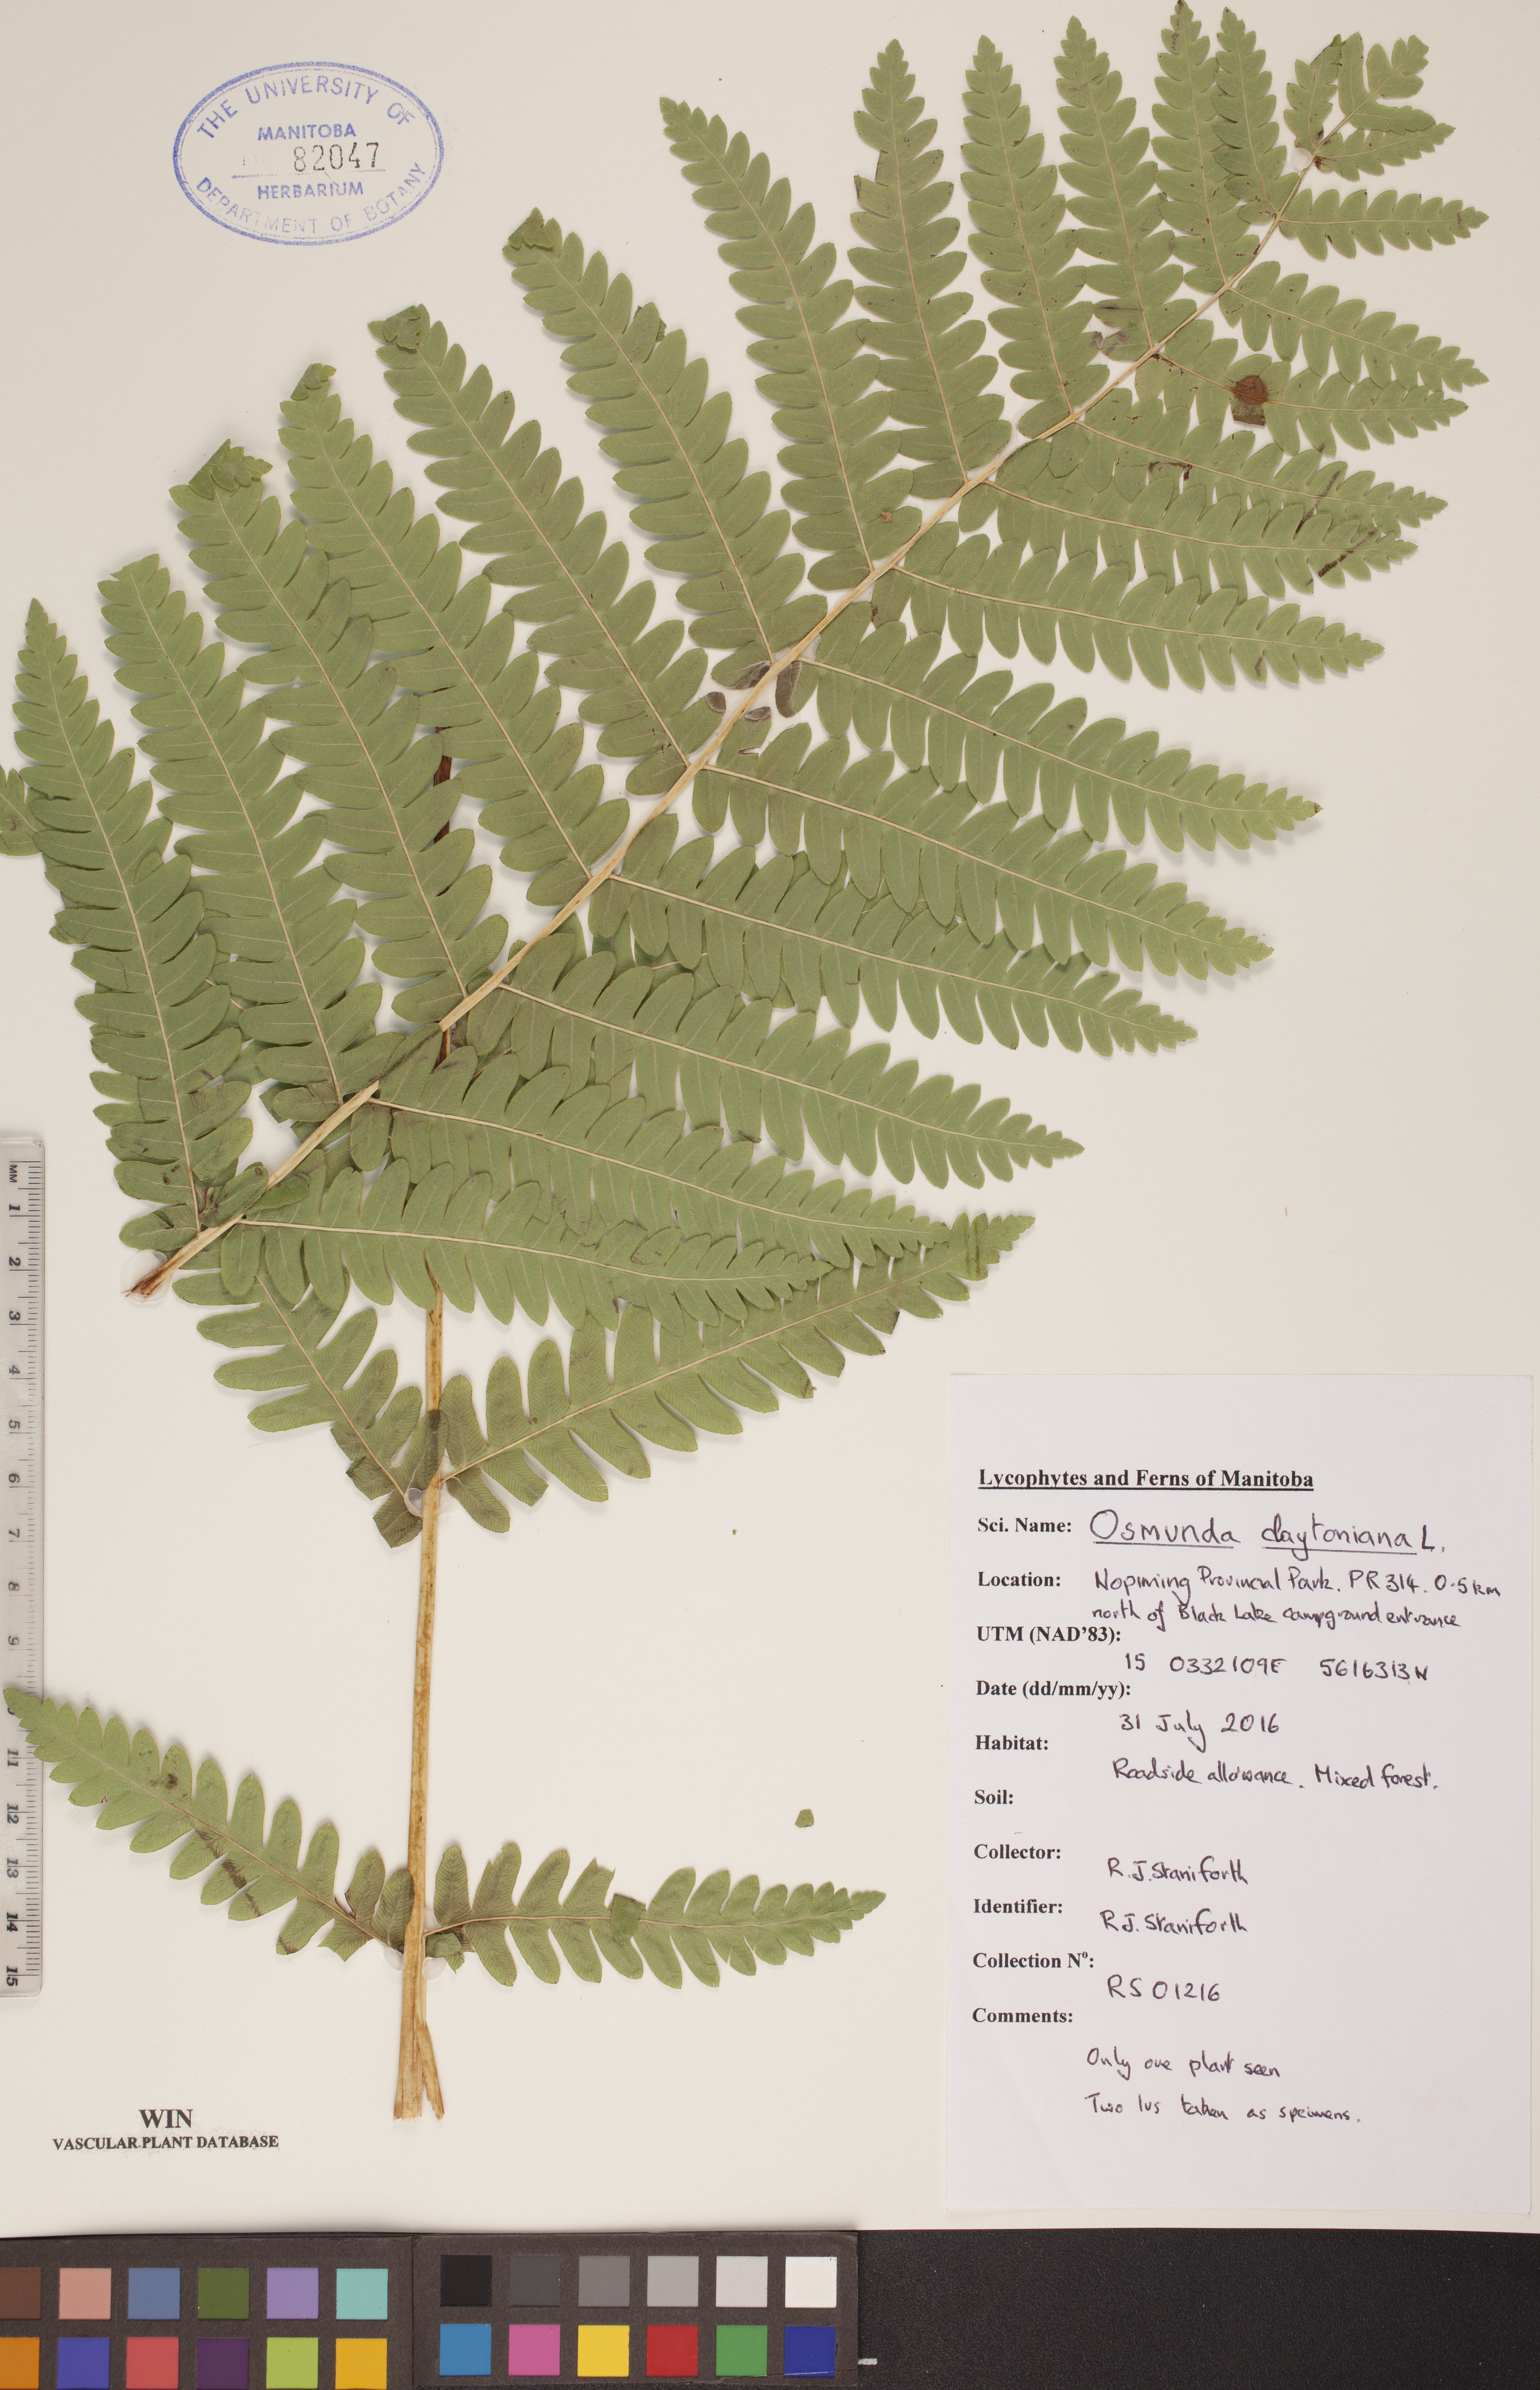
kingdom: Plantae
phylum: Tracheophyta
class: Polypodiopsida
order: Osmundales
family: Osmundaceae
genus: Claytosmunda
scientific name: Claytosmunda claytoniana
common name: Clayton's fern
